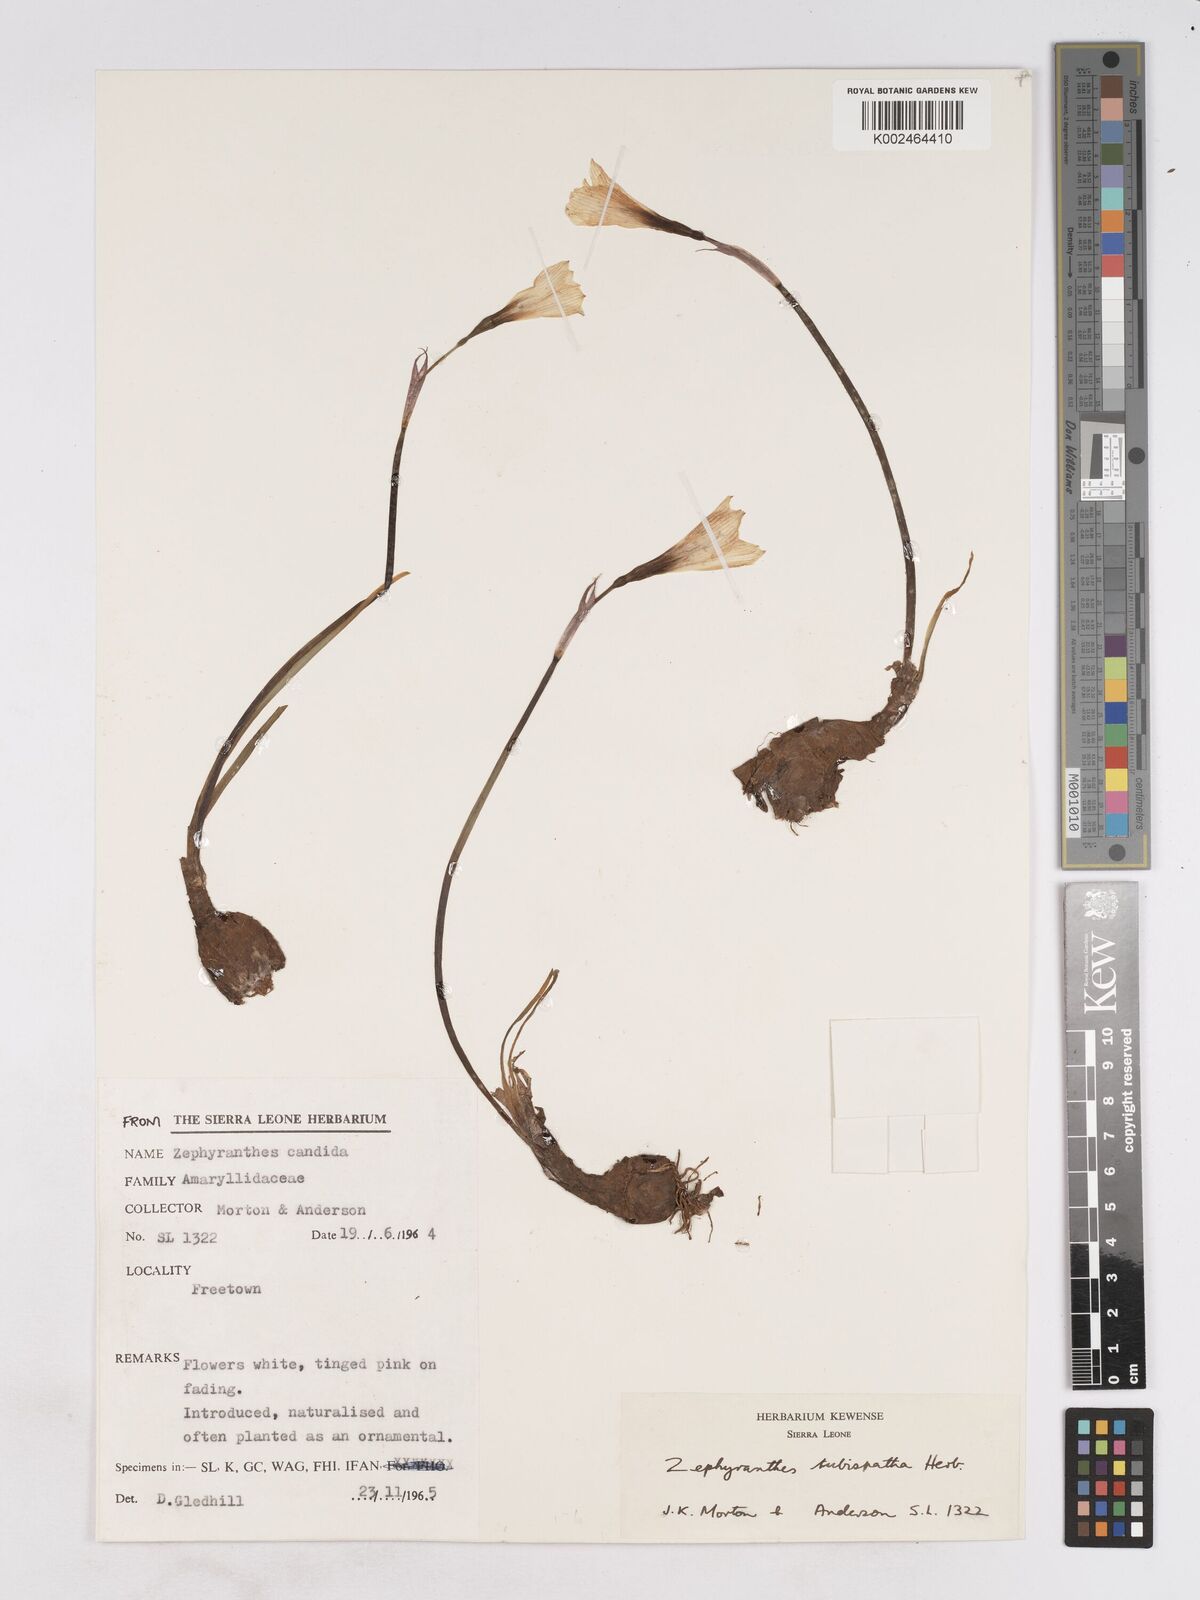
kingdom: Plantae
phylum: Tracheophyta
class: Liliopsida
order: Asparagales
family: Amaryllidaceae
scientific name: Amaryllidaceae
